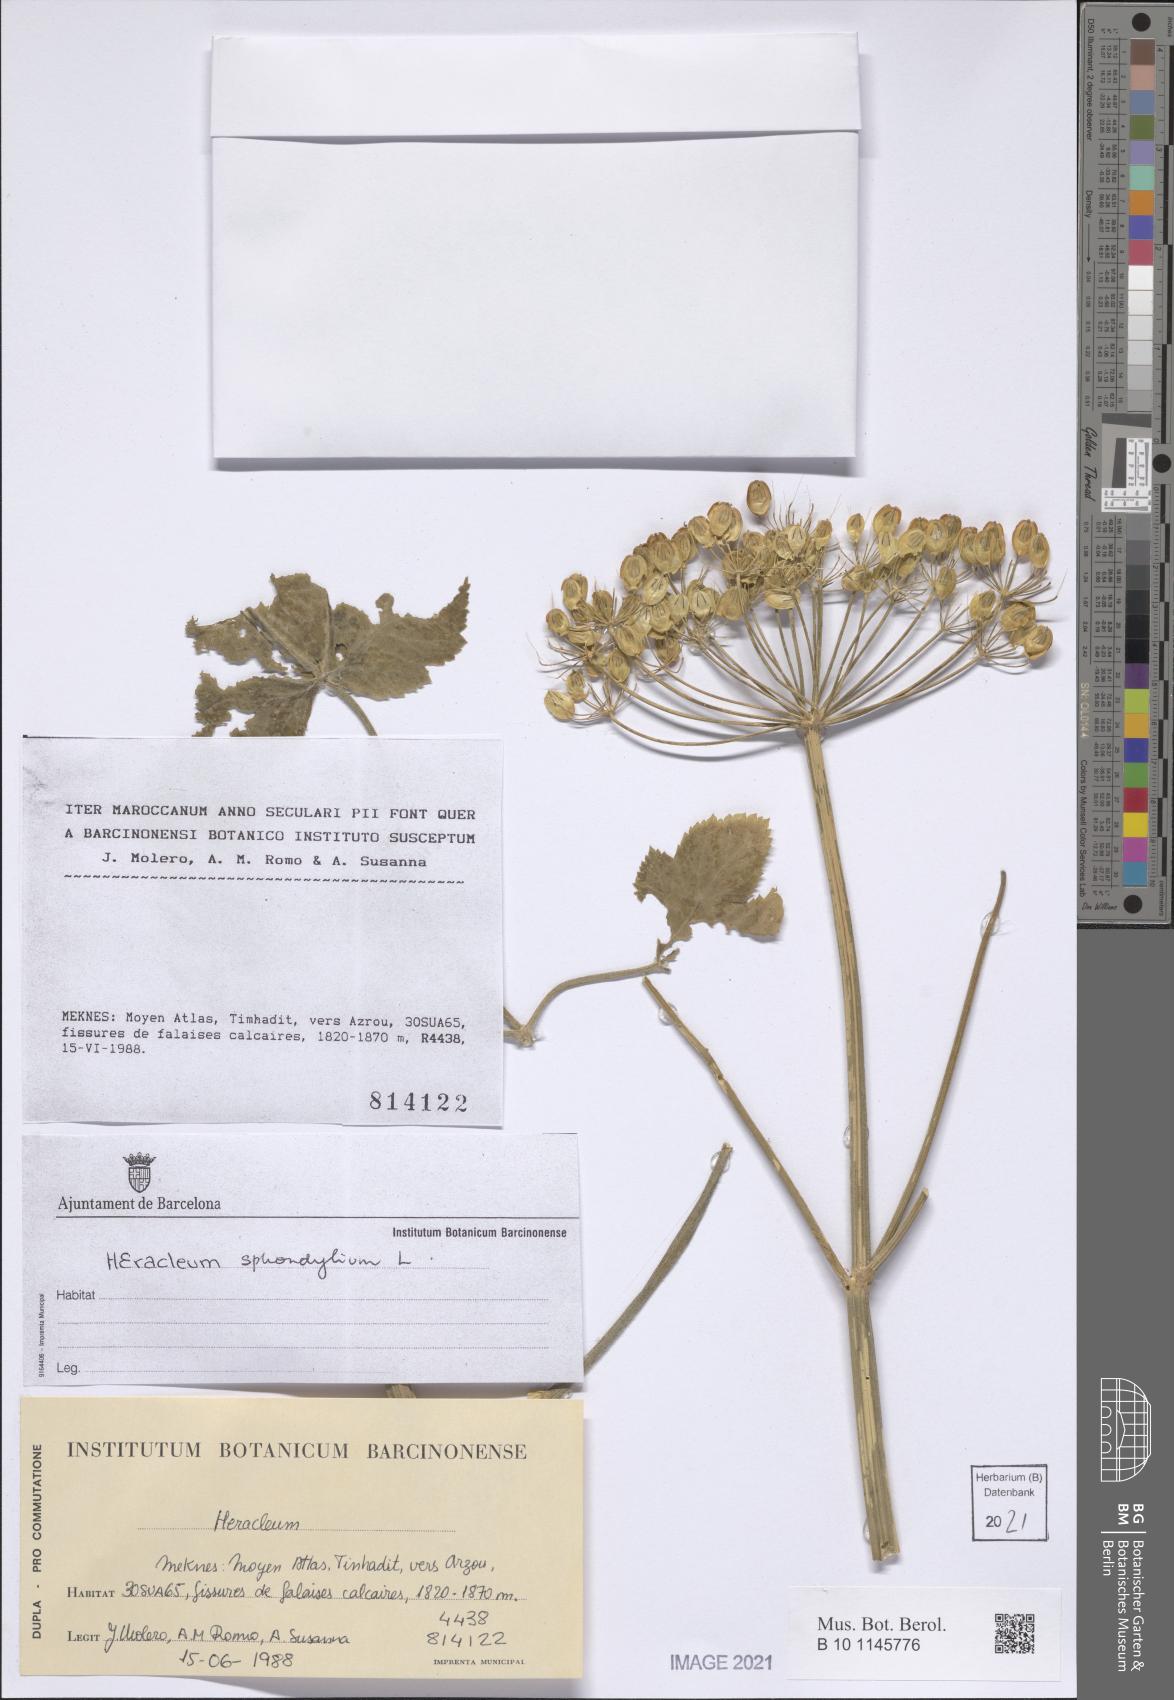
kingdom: Plantae
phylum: Tracheophyta
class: Magnoliopsida
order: Apiales
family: Apiaceae
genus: Heracleum
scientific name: Heracleum sphondylium
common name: Hogweed
